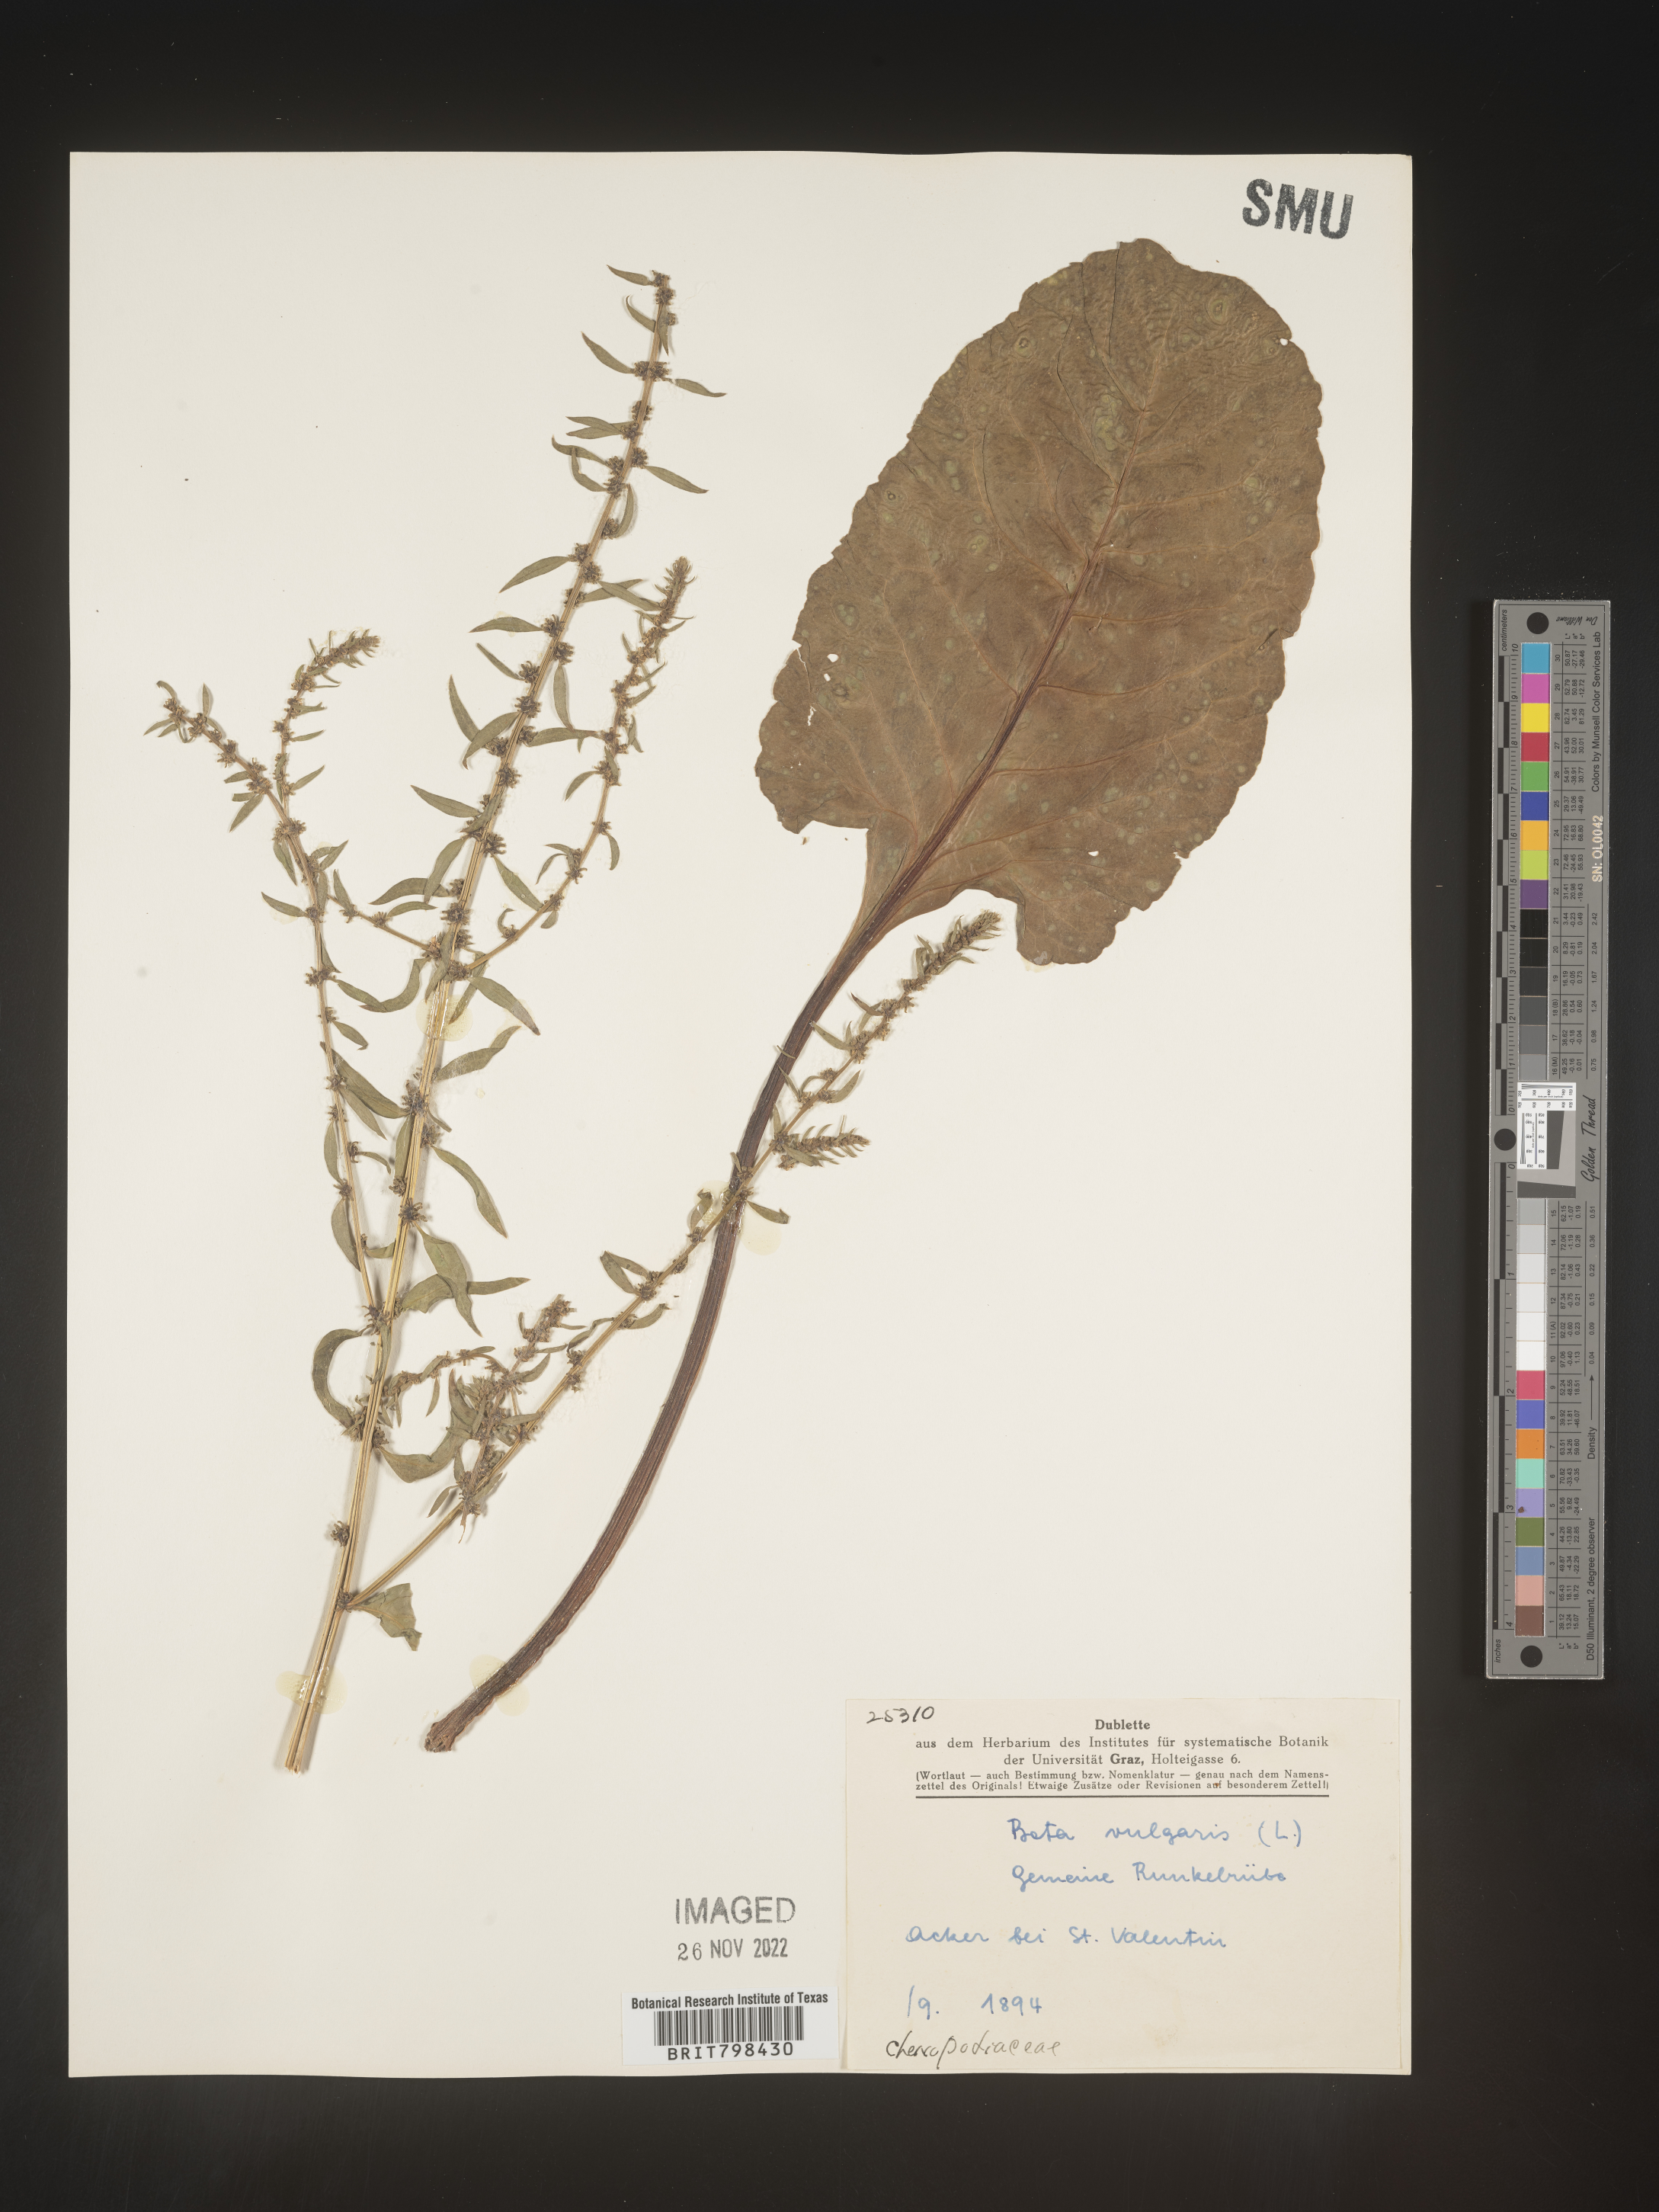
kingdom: Plantae
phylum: Tracheophyta
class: Magnoliopsida
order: Caryophyllales
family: Amaranthaceae
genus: Beta
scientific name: Beta
